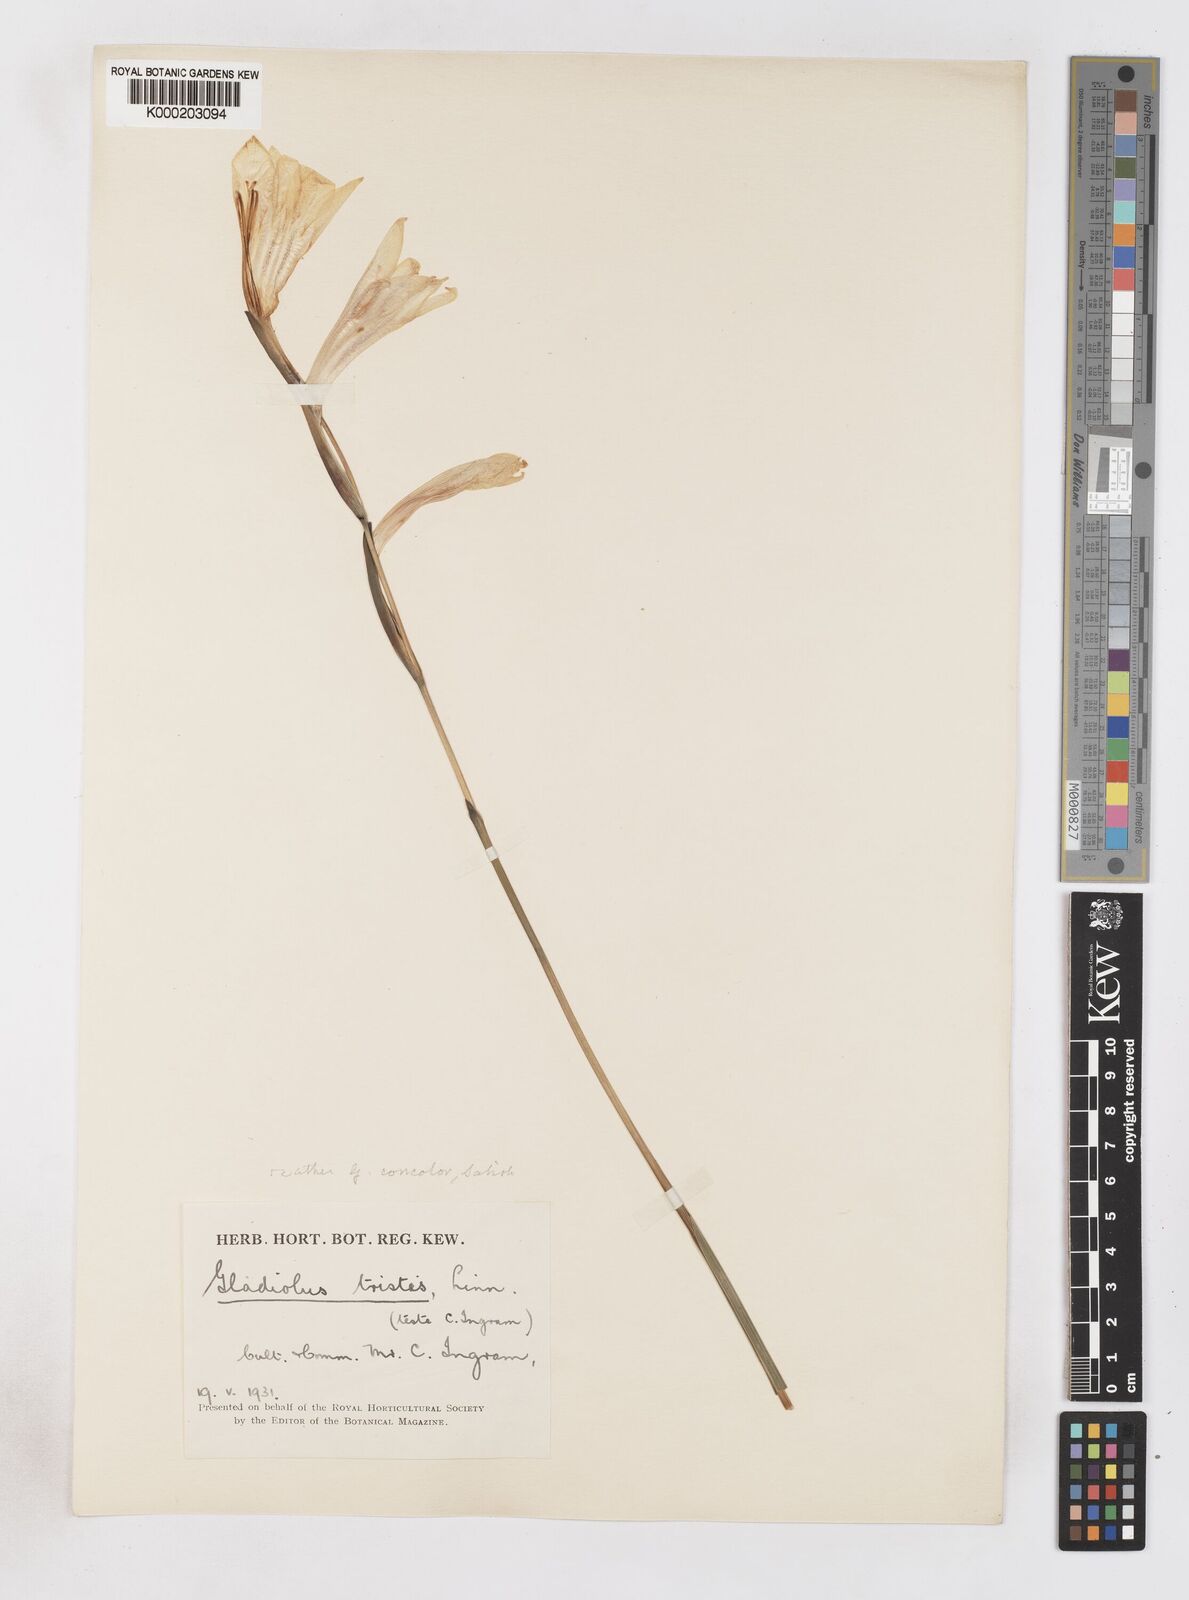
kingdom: Plantae
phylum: Tracheophyta
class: Liliopsida
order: Asparagales
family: Iridaceae
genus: Gladiolus
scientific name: Gladiolus tristis
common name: Ever-flowering gladiolus
